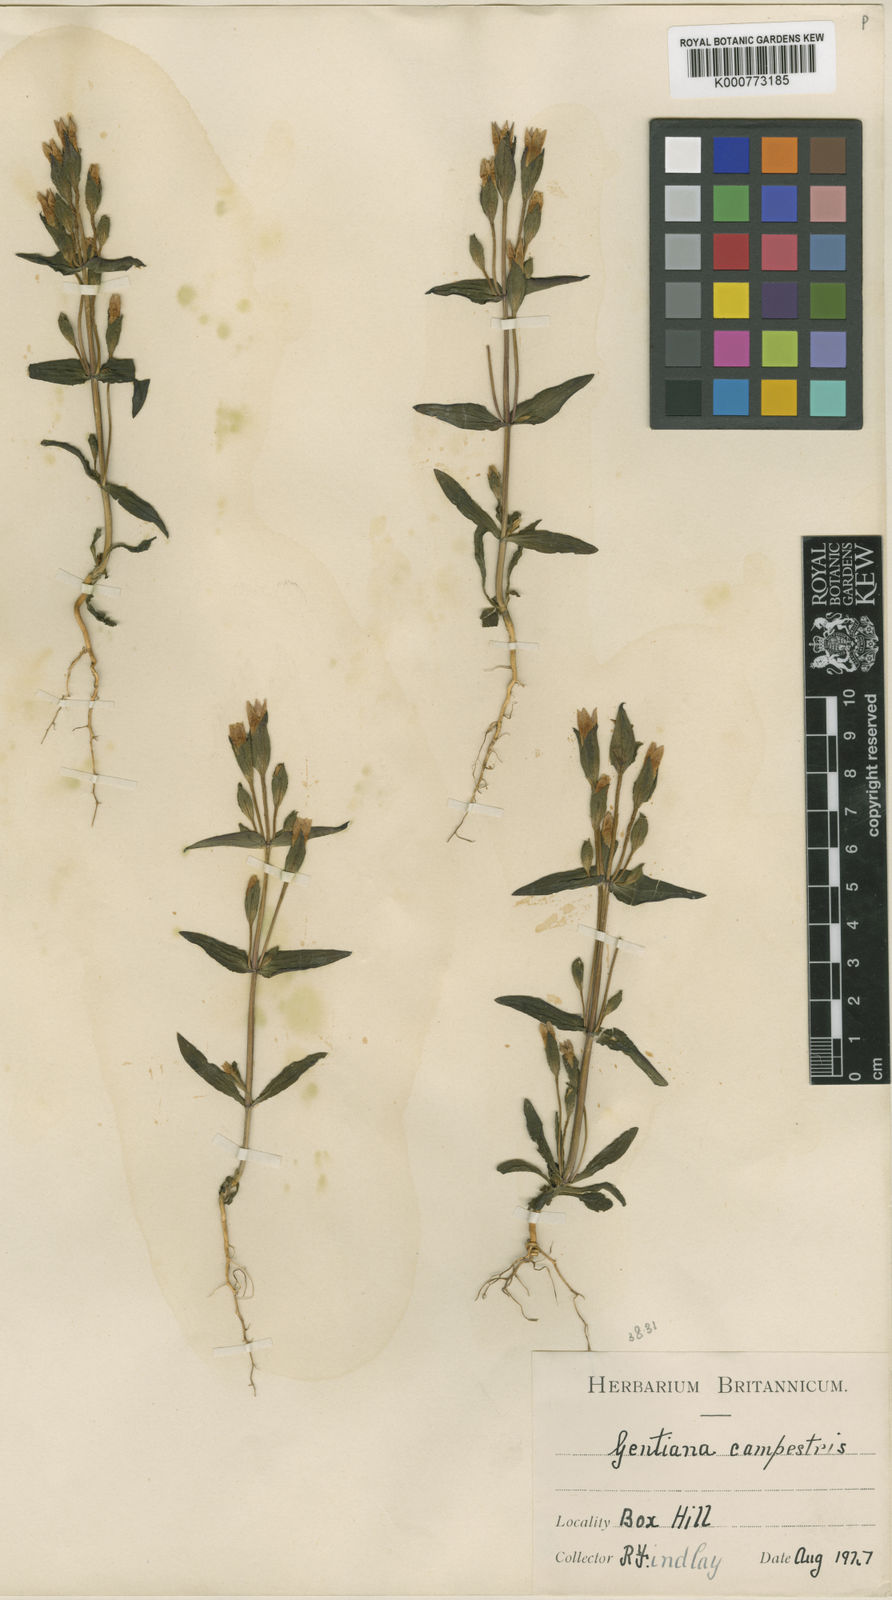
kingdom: Plantae
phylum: Tracheophyta
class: Magnoliopsida
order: Gentianales
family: Gentianaceae
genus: Gentianella
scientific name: Gentianella
